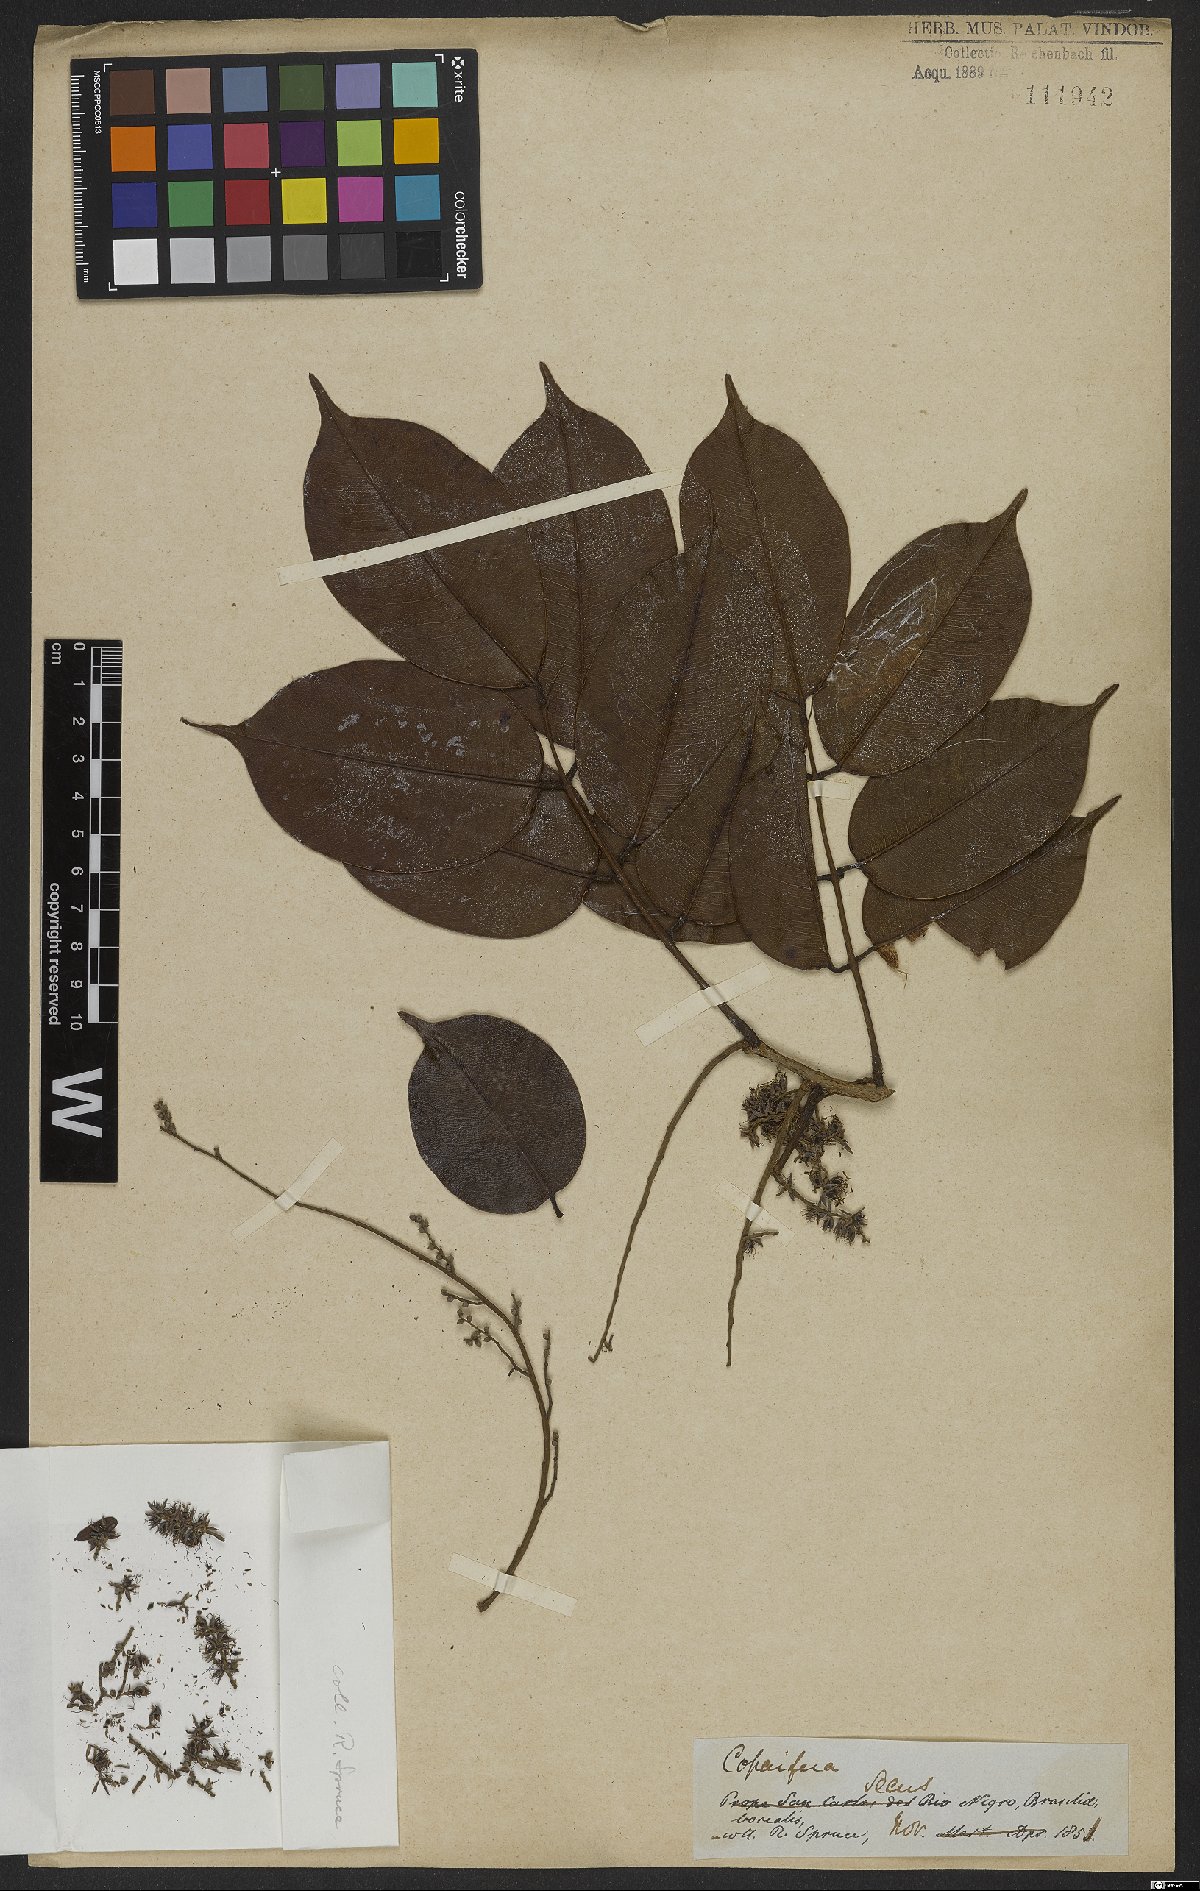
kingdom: Plantae
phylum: Tracheophyta
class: Magnoliopsida
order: Fabales
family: Fabaceae
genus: Copaifera
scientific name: Copaifera martii
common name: Copaiba
